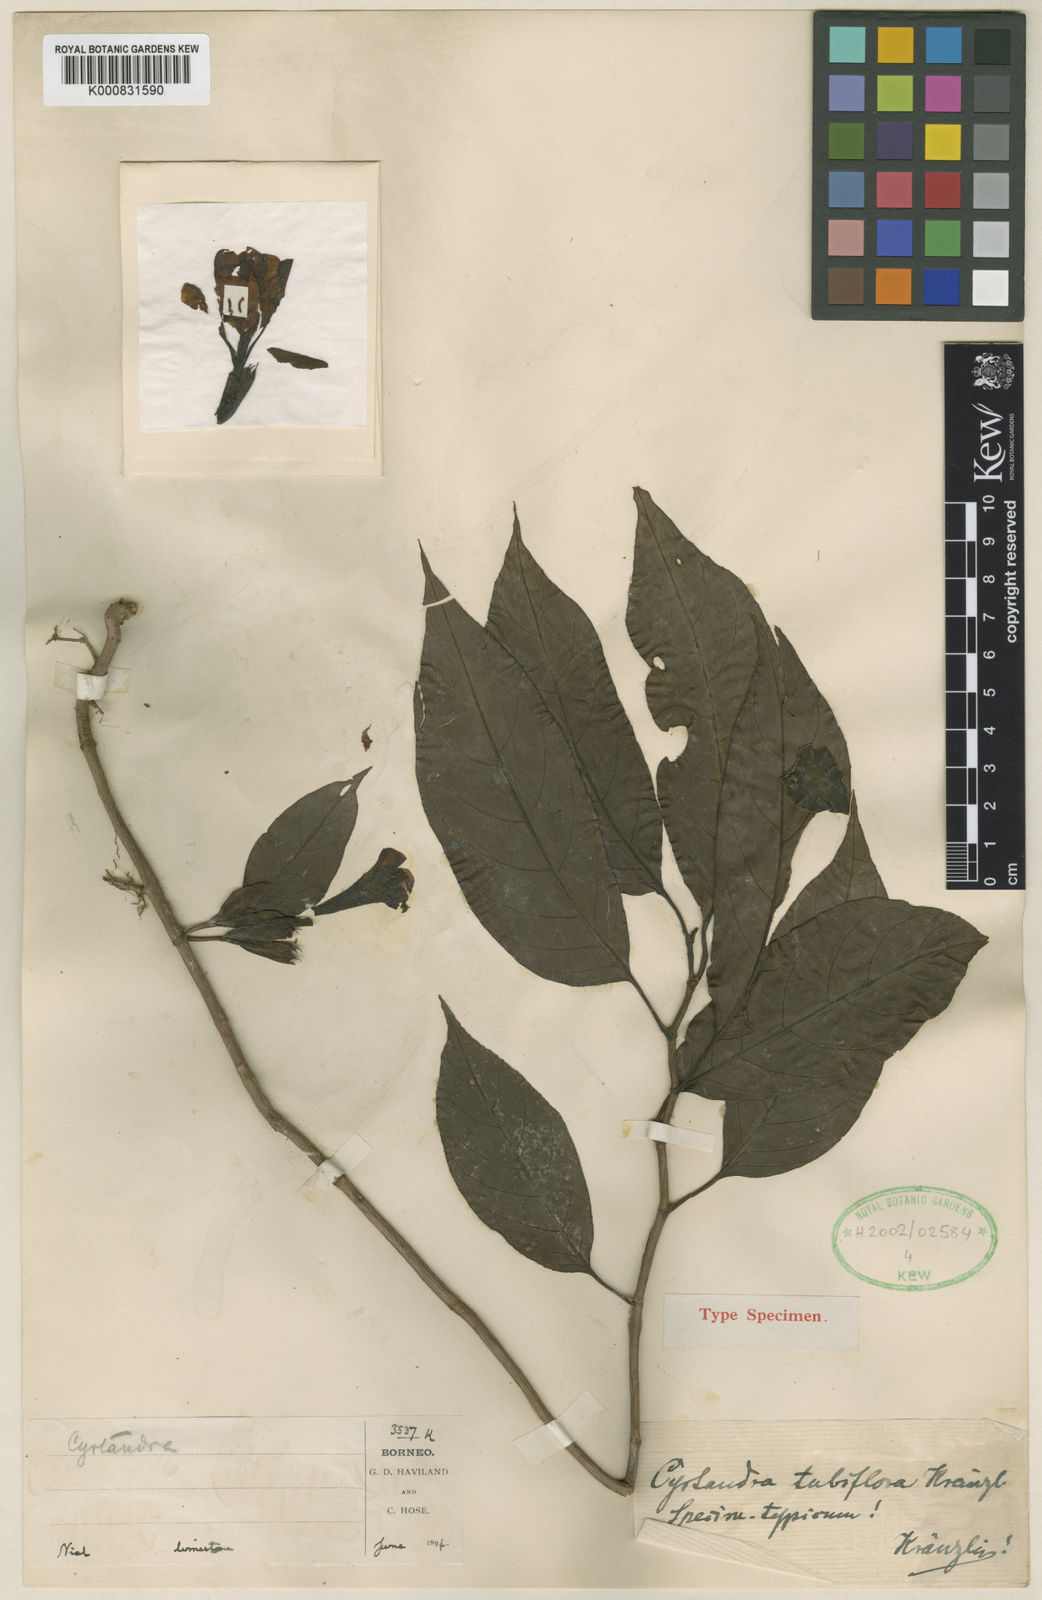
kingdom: Plantae
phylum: Tracheophyta
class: Magnoliopsida
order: Lamiales
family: Gesneriaceae
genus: Cyrtandra
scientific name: Cyrtandra simplex
